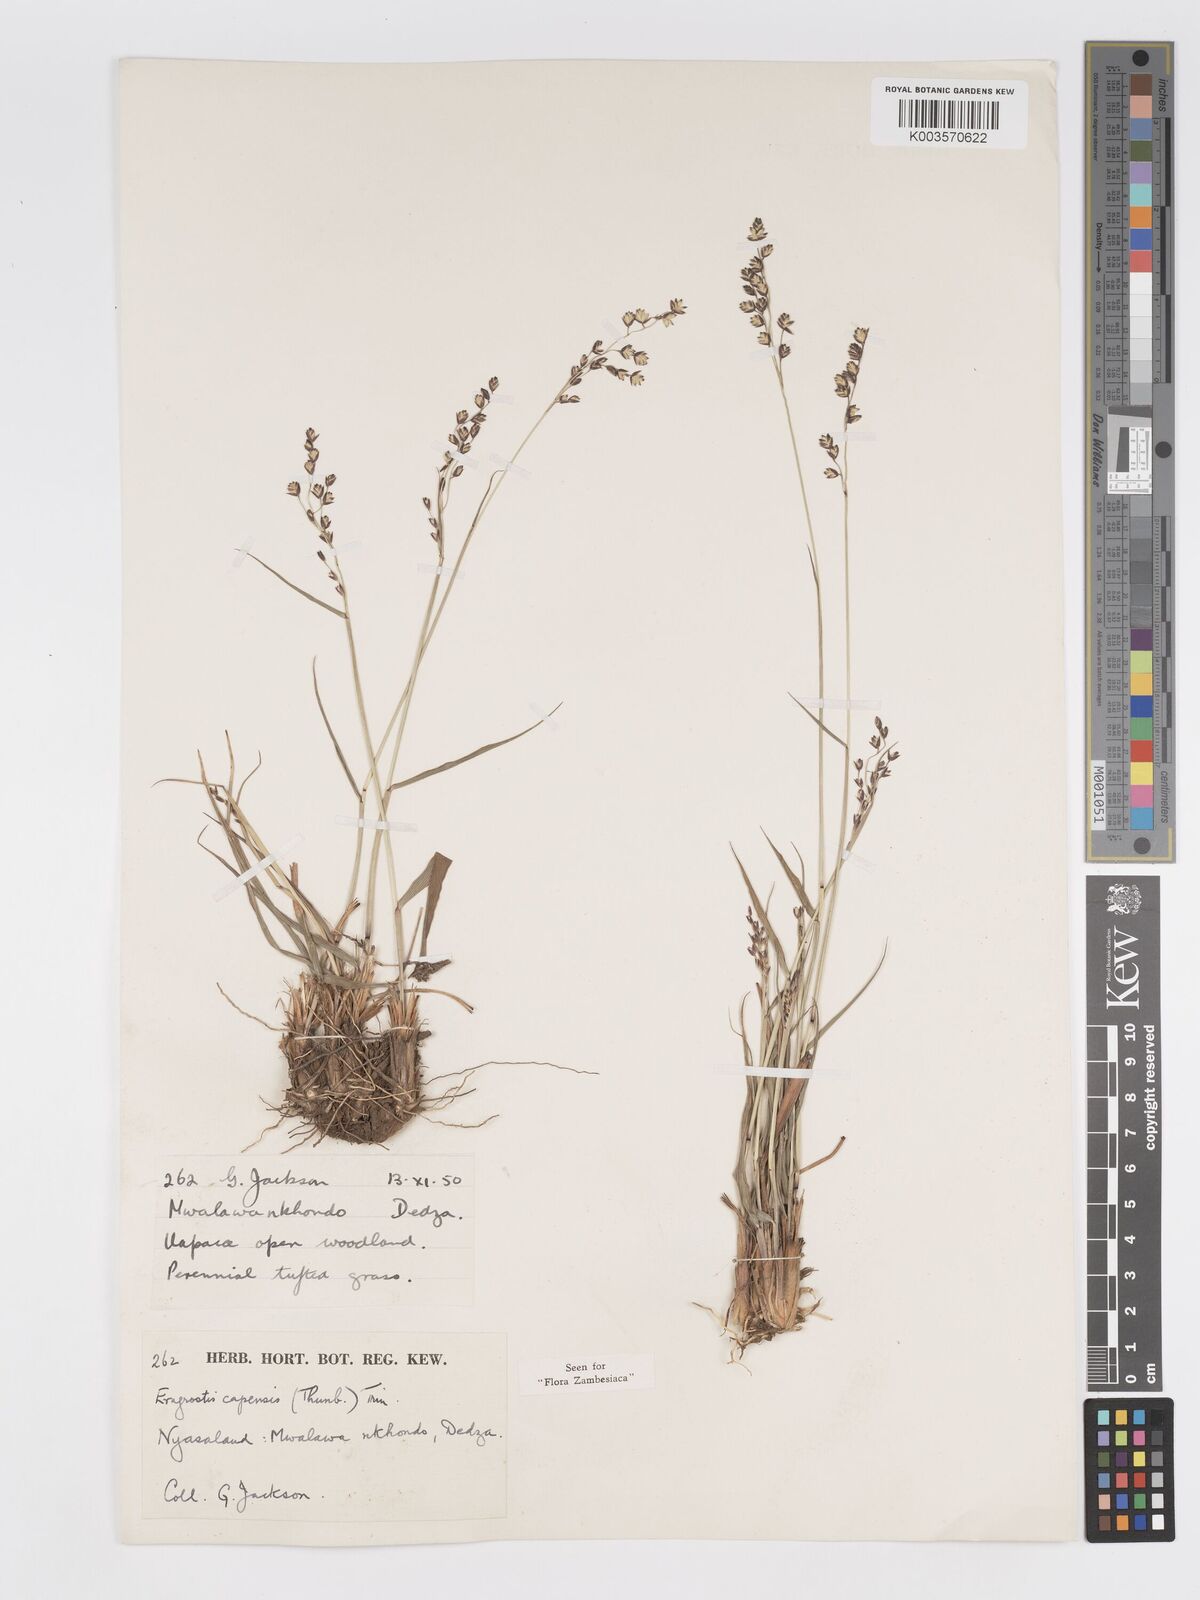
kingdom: Plantae
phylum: Tracheophyta
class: Liliopsida
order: Poales
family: Poaceae
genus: Eragrostis
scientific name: Eragrostis capensis
